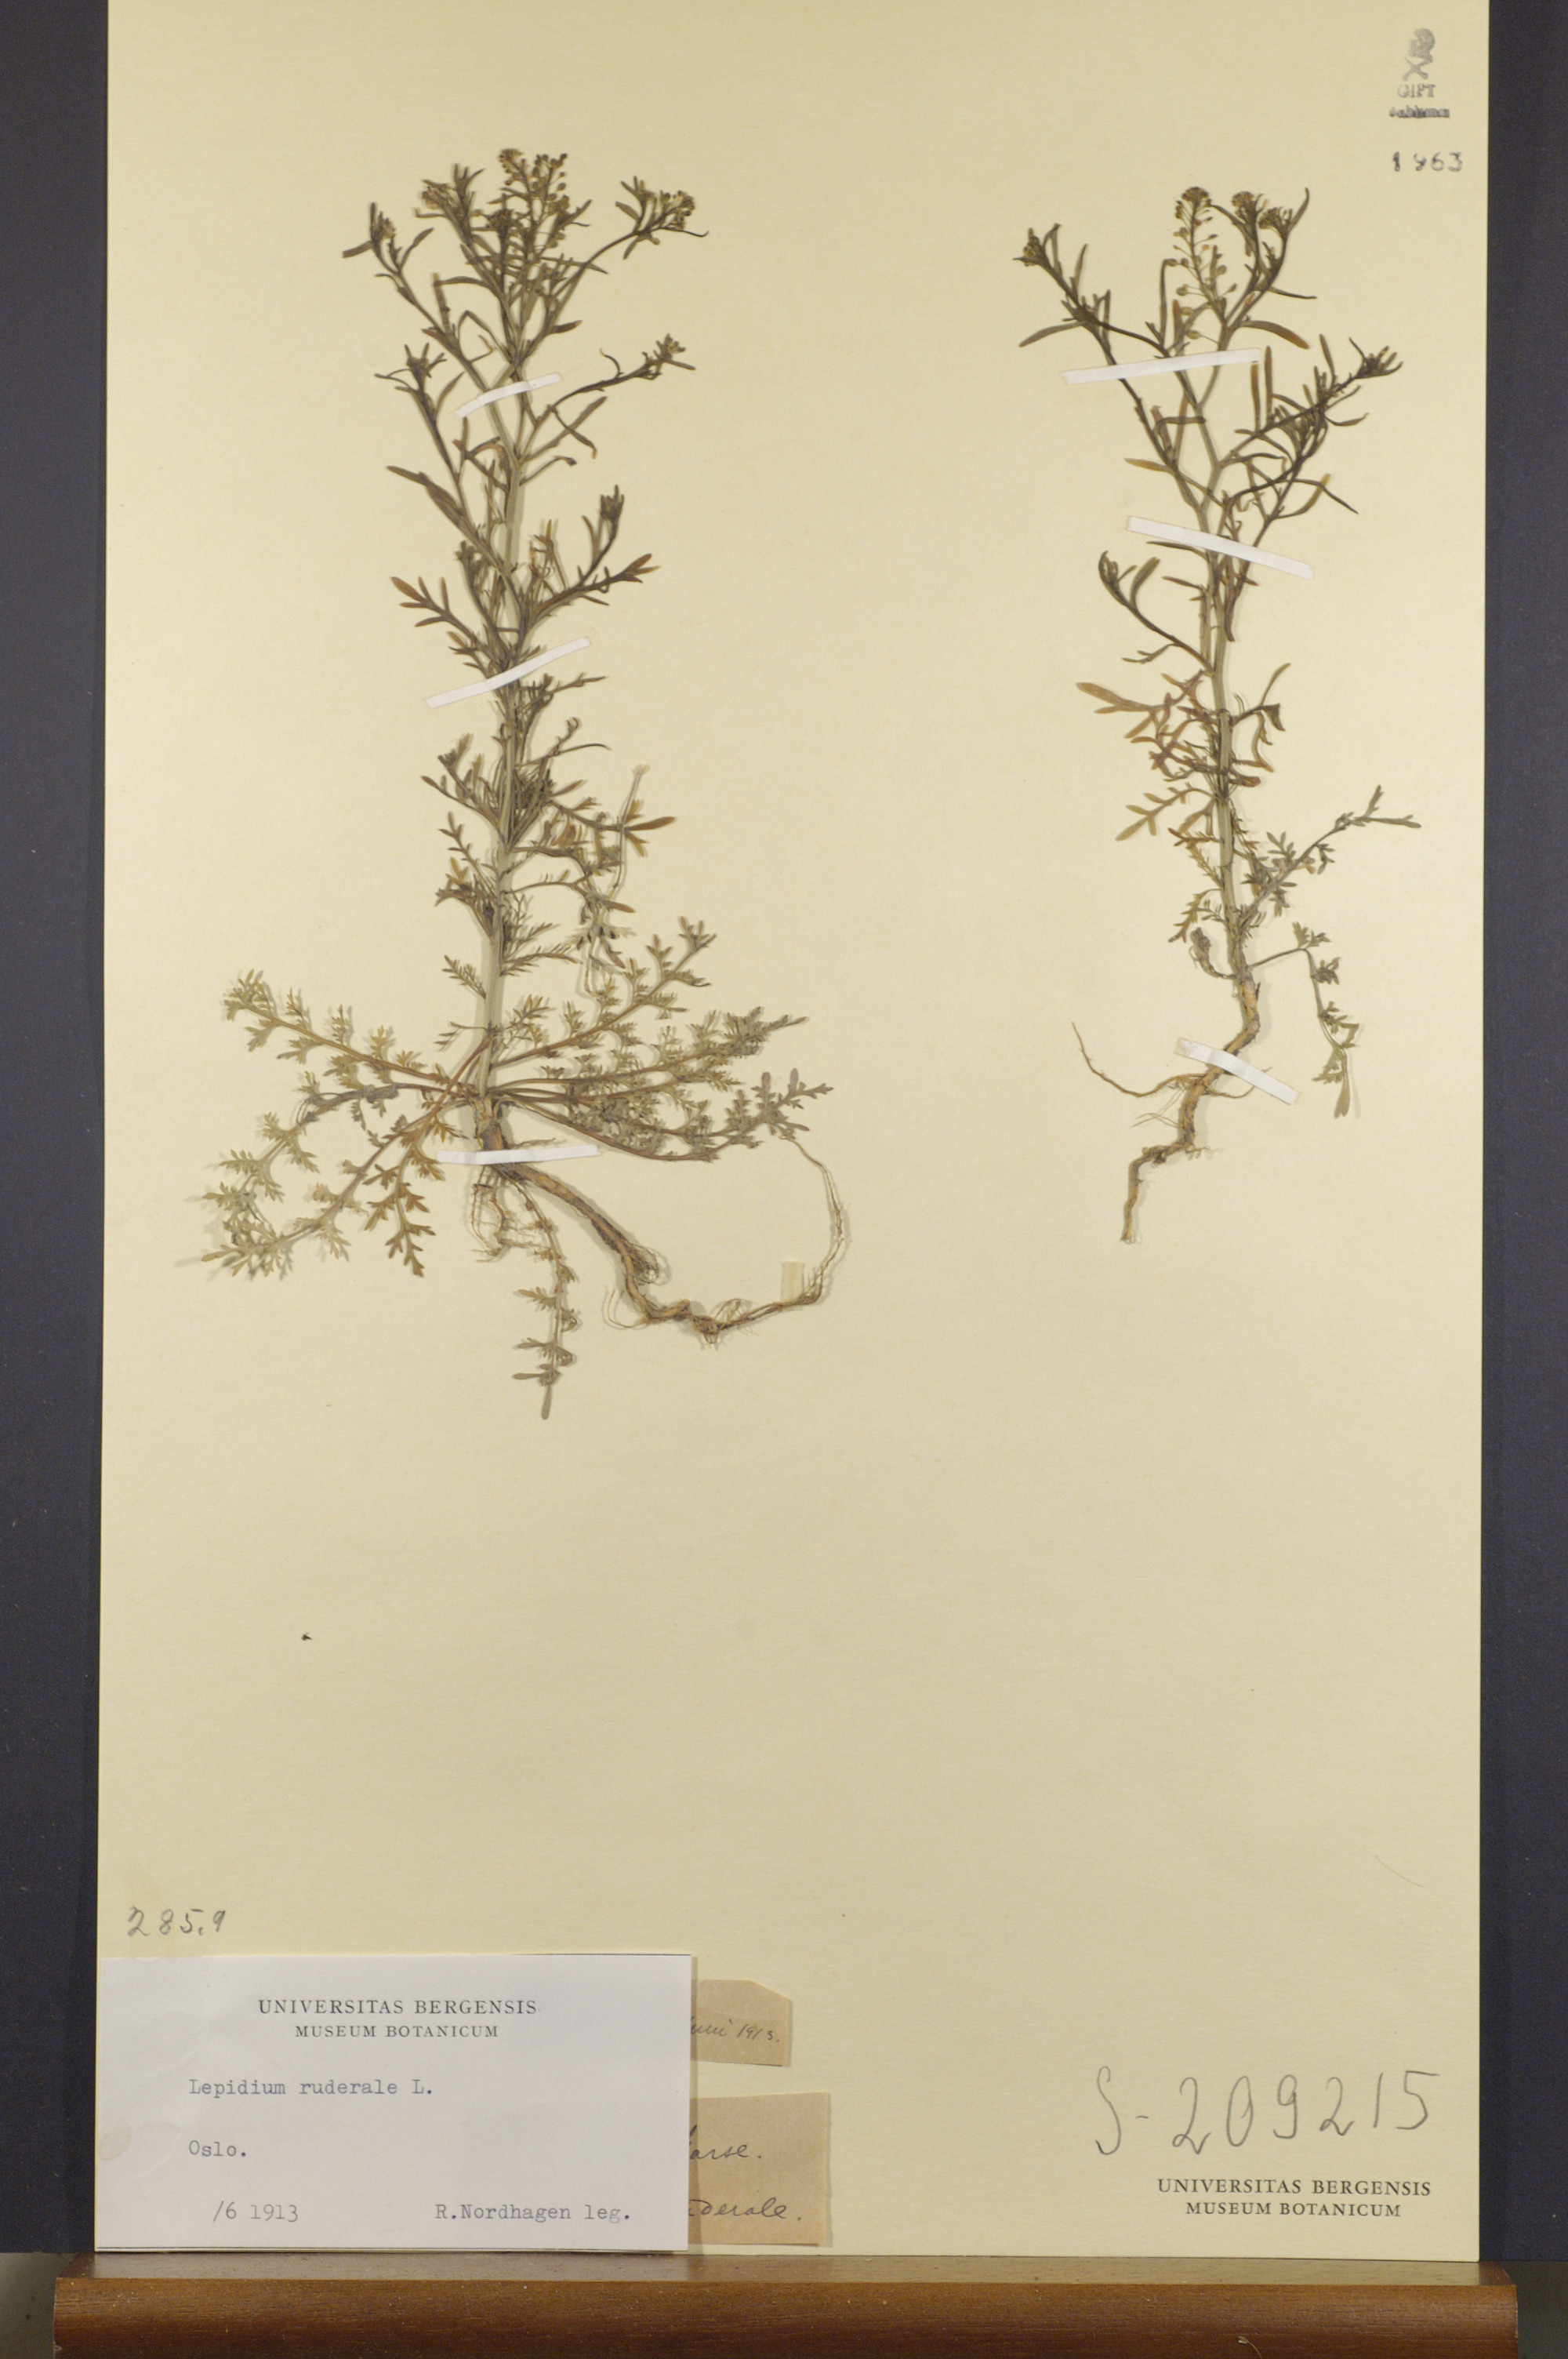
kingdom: Plantae
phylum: Tracheophyta
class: Magnoliopsida
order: Brassicales
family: Brassicaceae
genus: Lepidium
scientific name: Lepidium ruderale
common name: Narrow-leaved pepperwort
